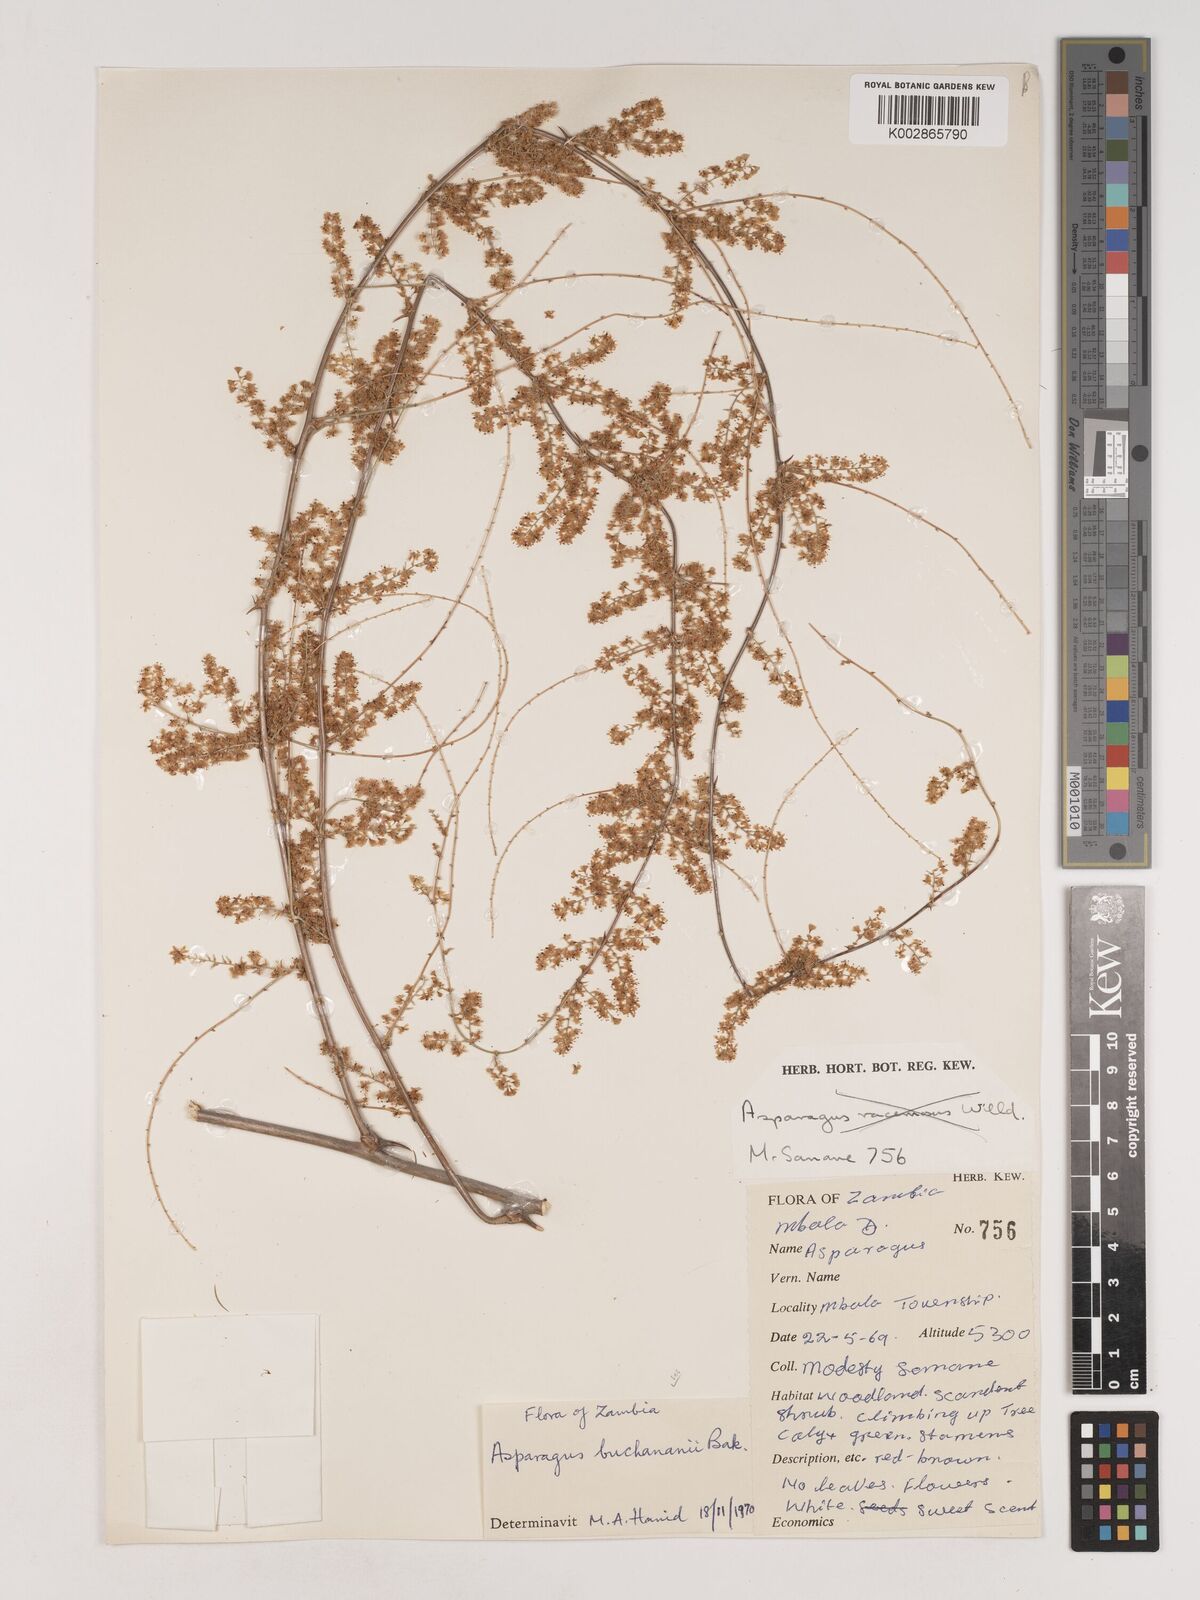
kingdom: Plantae
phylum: Tracheophyta
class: Liliopsida
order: Asparagales
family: Asparagaceae
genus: Asparagus
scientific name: Asparagus buchananii
